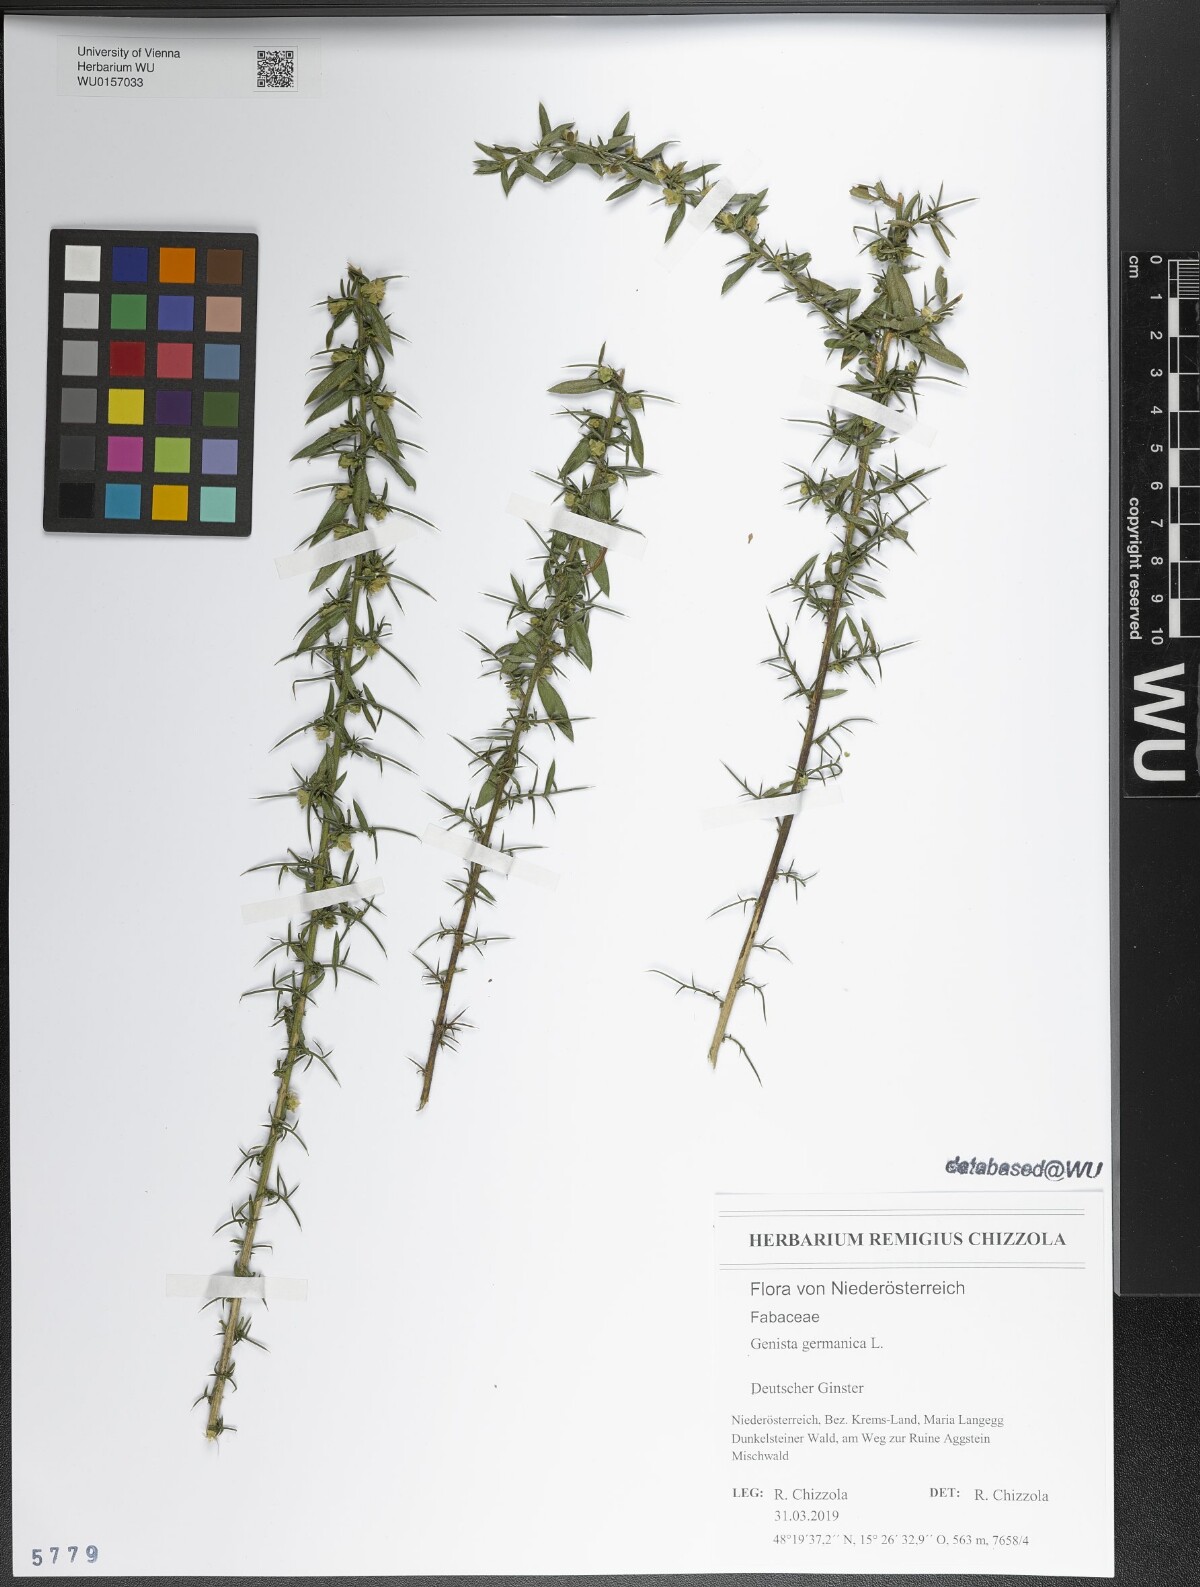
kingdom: Plantae
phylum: Tracheophyta
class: Magnoliopsida
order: Fabales
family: Fabaceae
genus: Genista
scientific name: Genista germanica
